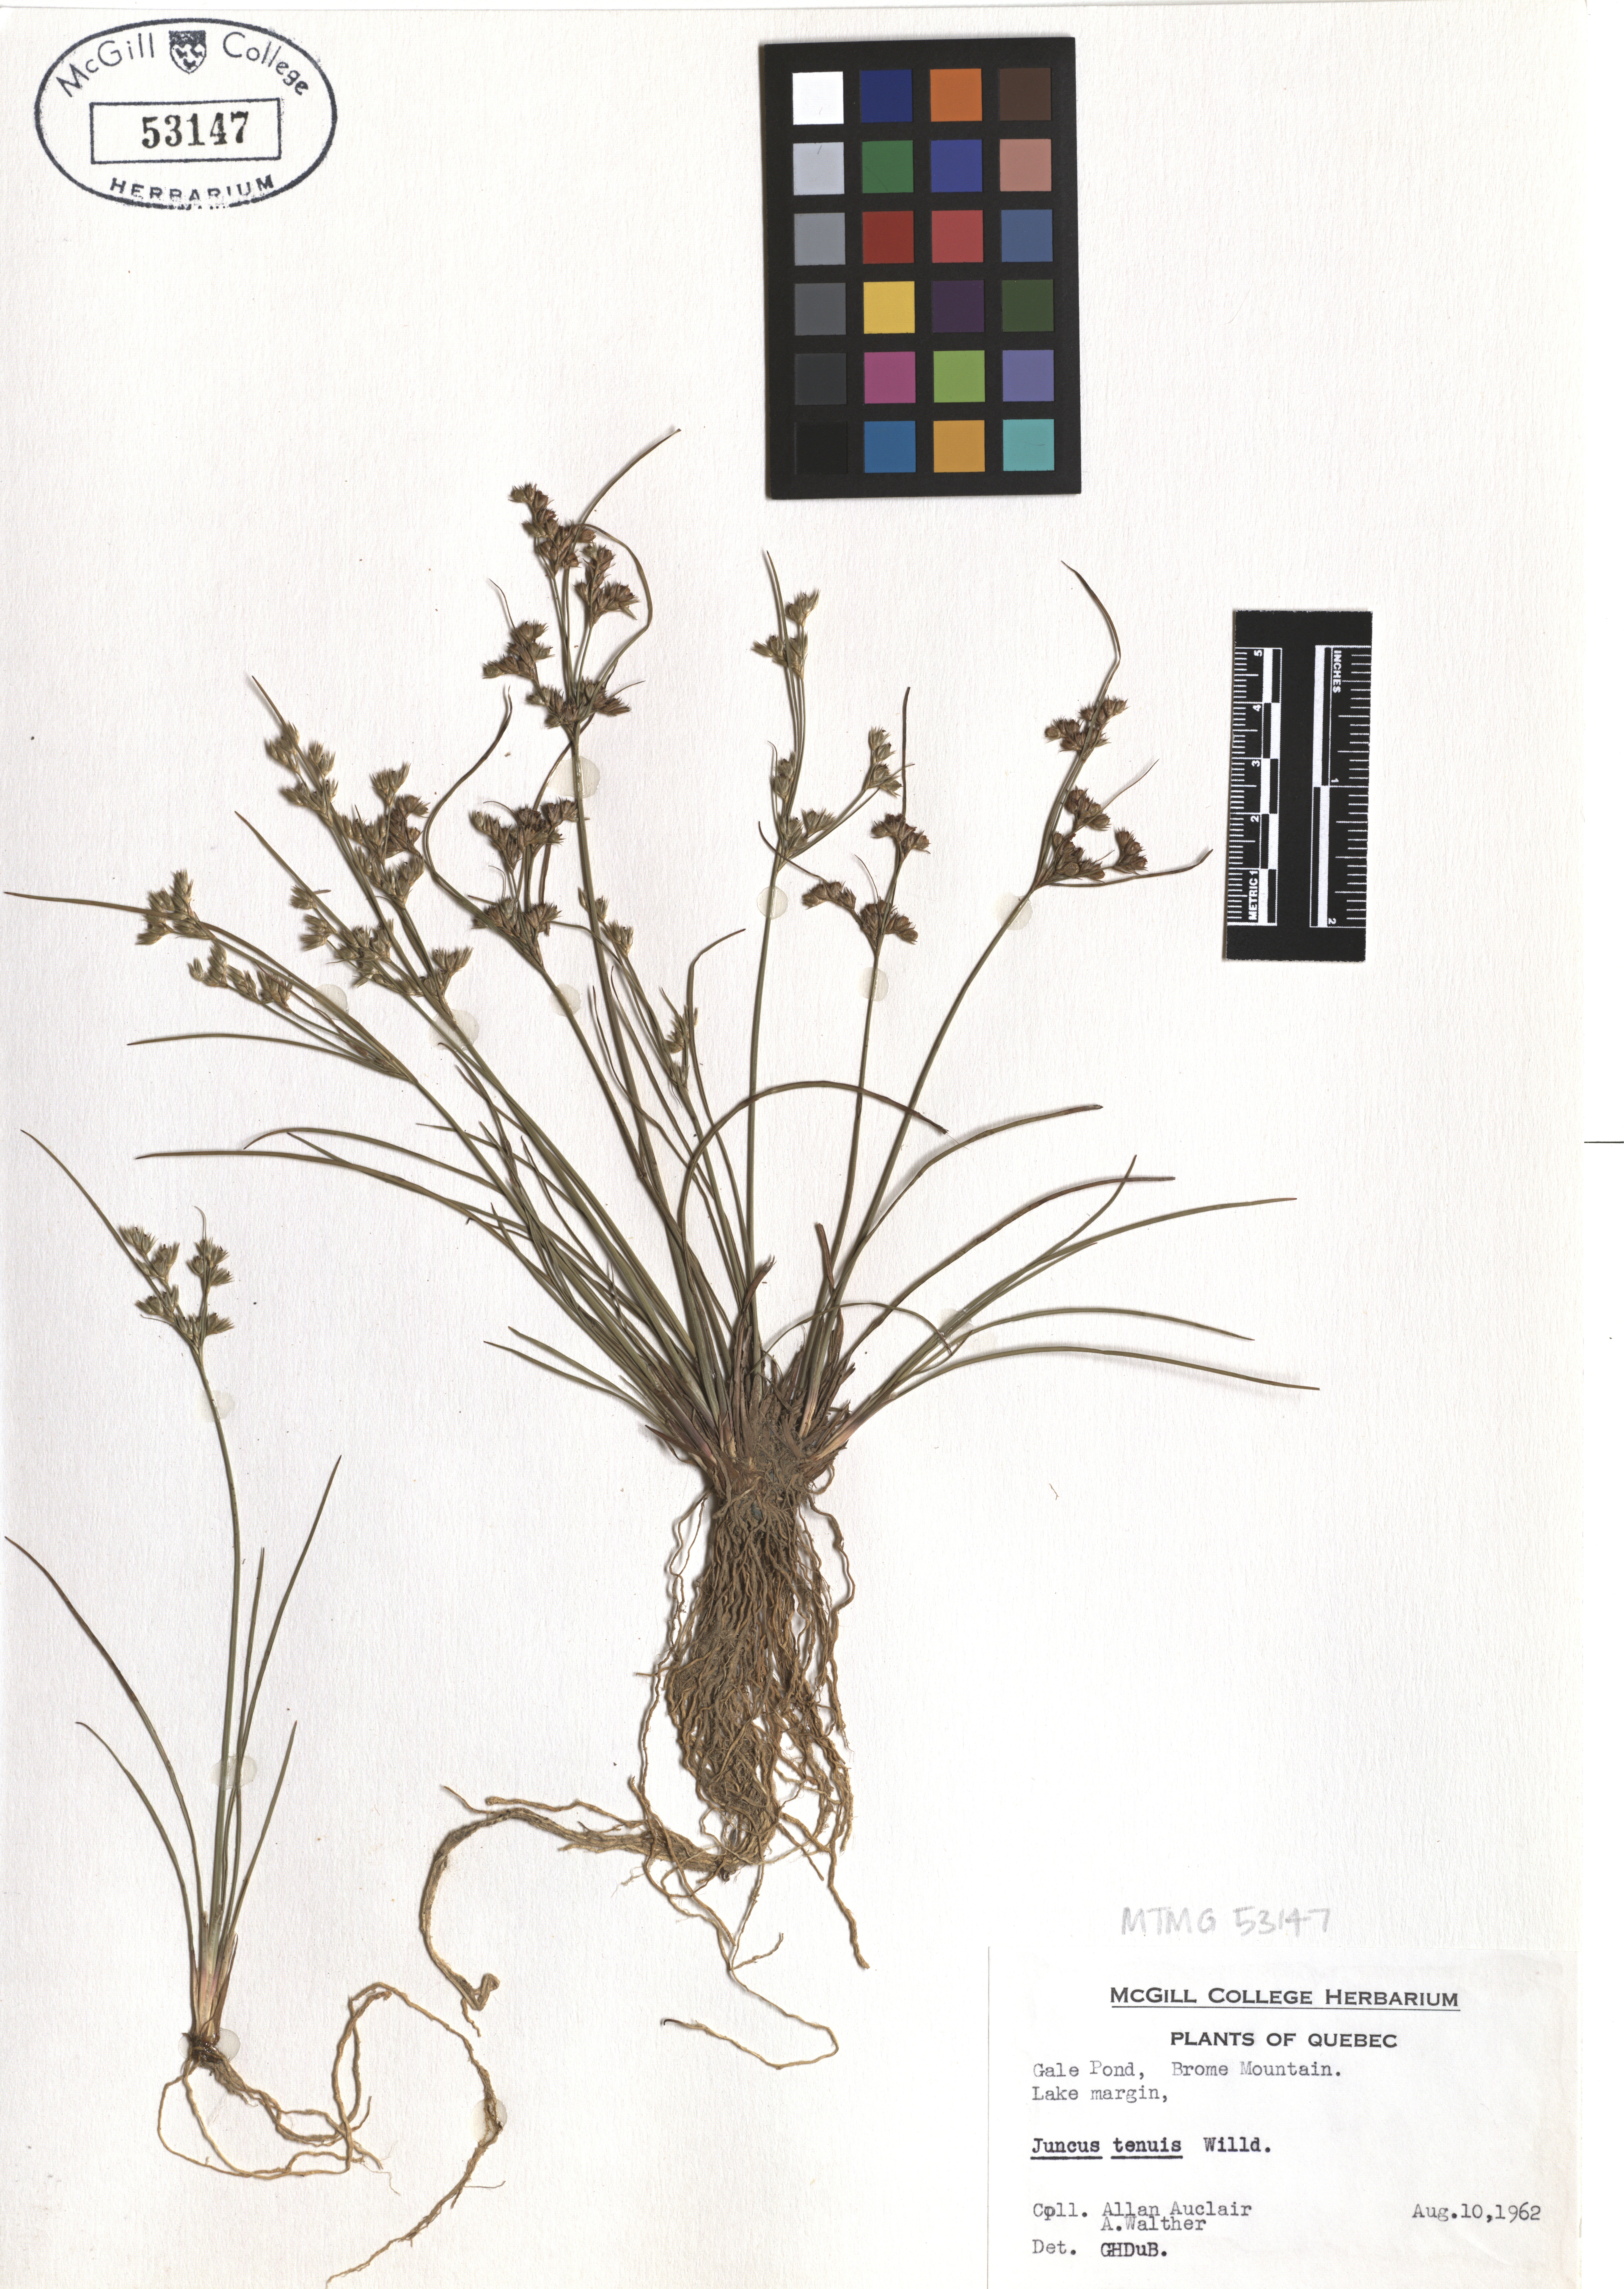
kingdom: Plantae
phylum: Tracheophyta
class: Liliopsida
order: Poales
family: Juncaceae
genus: Juncus
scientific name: Juncus tenuis
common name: Slender rush
